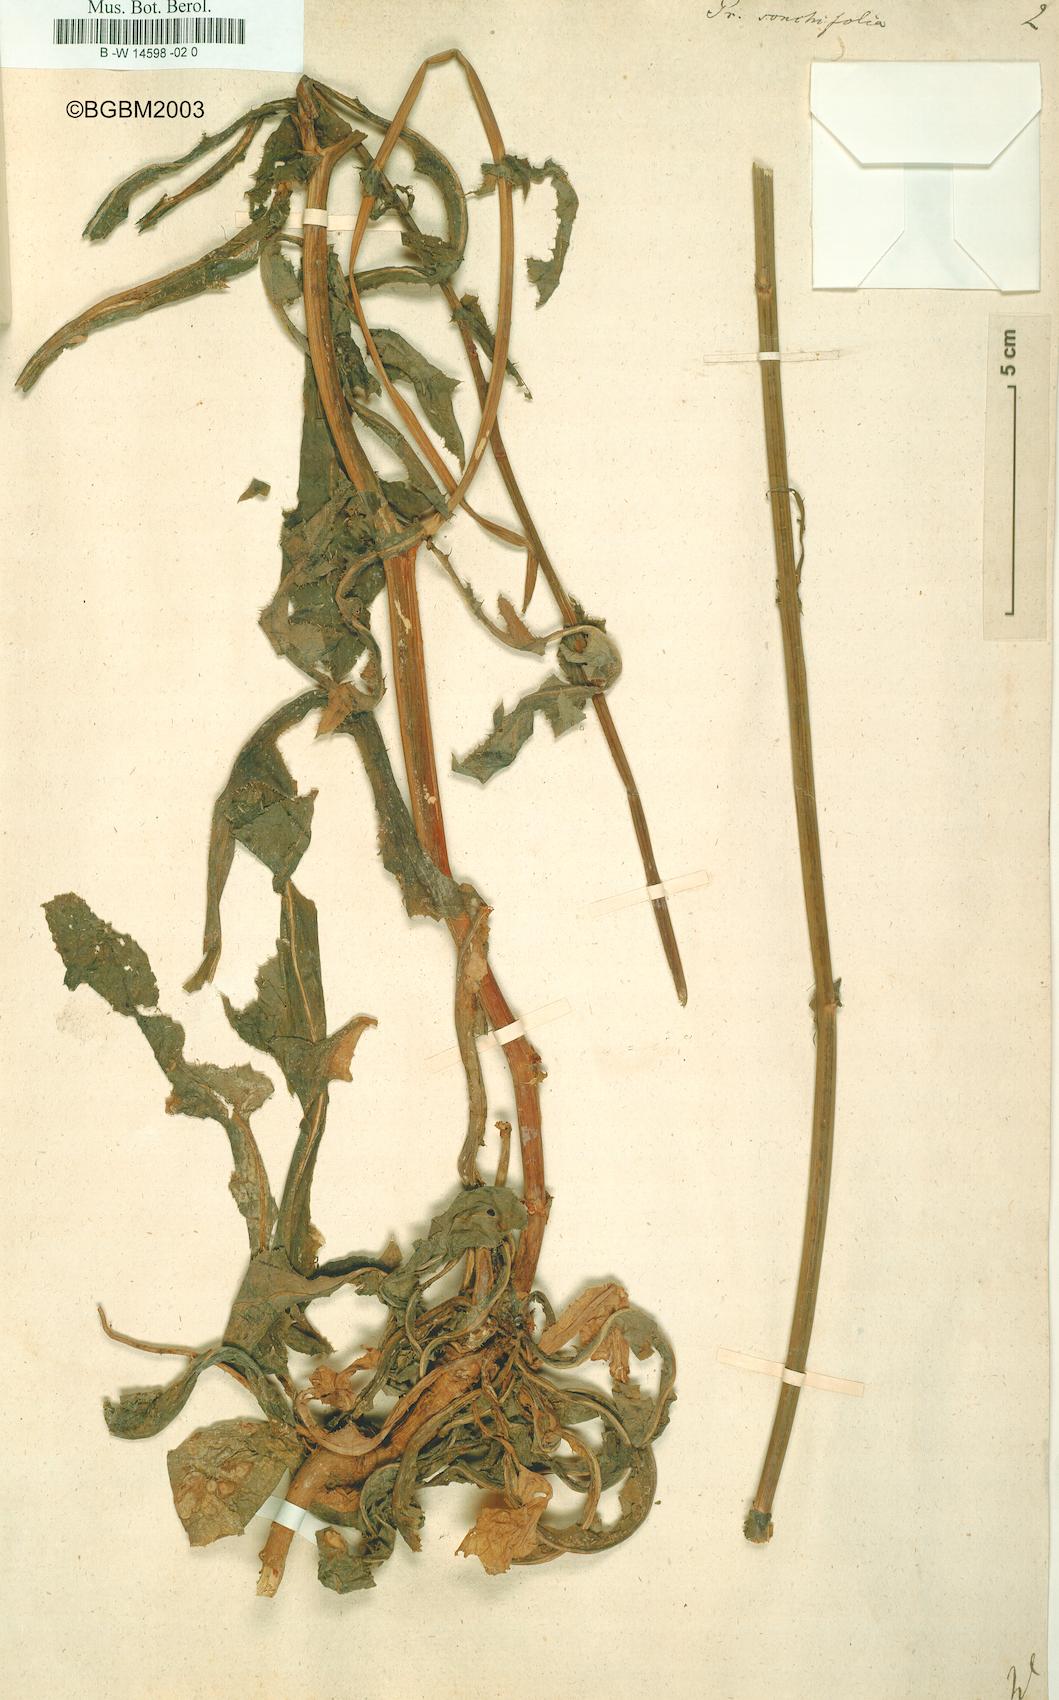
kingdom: Plantae
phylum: Tracheophyta
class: Magnoliopsida
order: Asterales
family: Asteraceae
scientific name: Asteraceae
